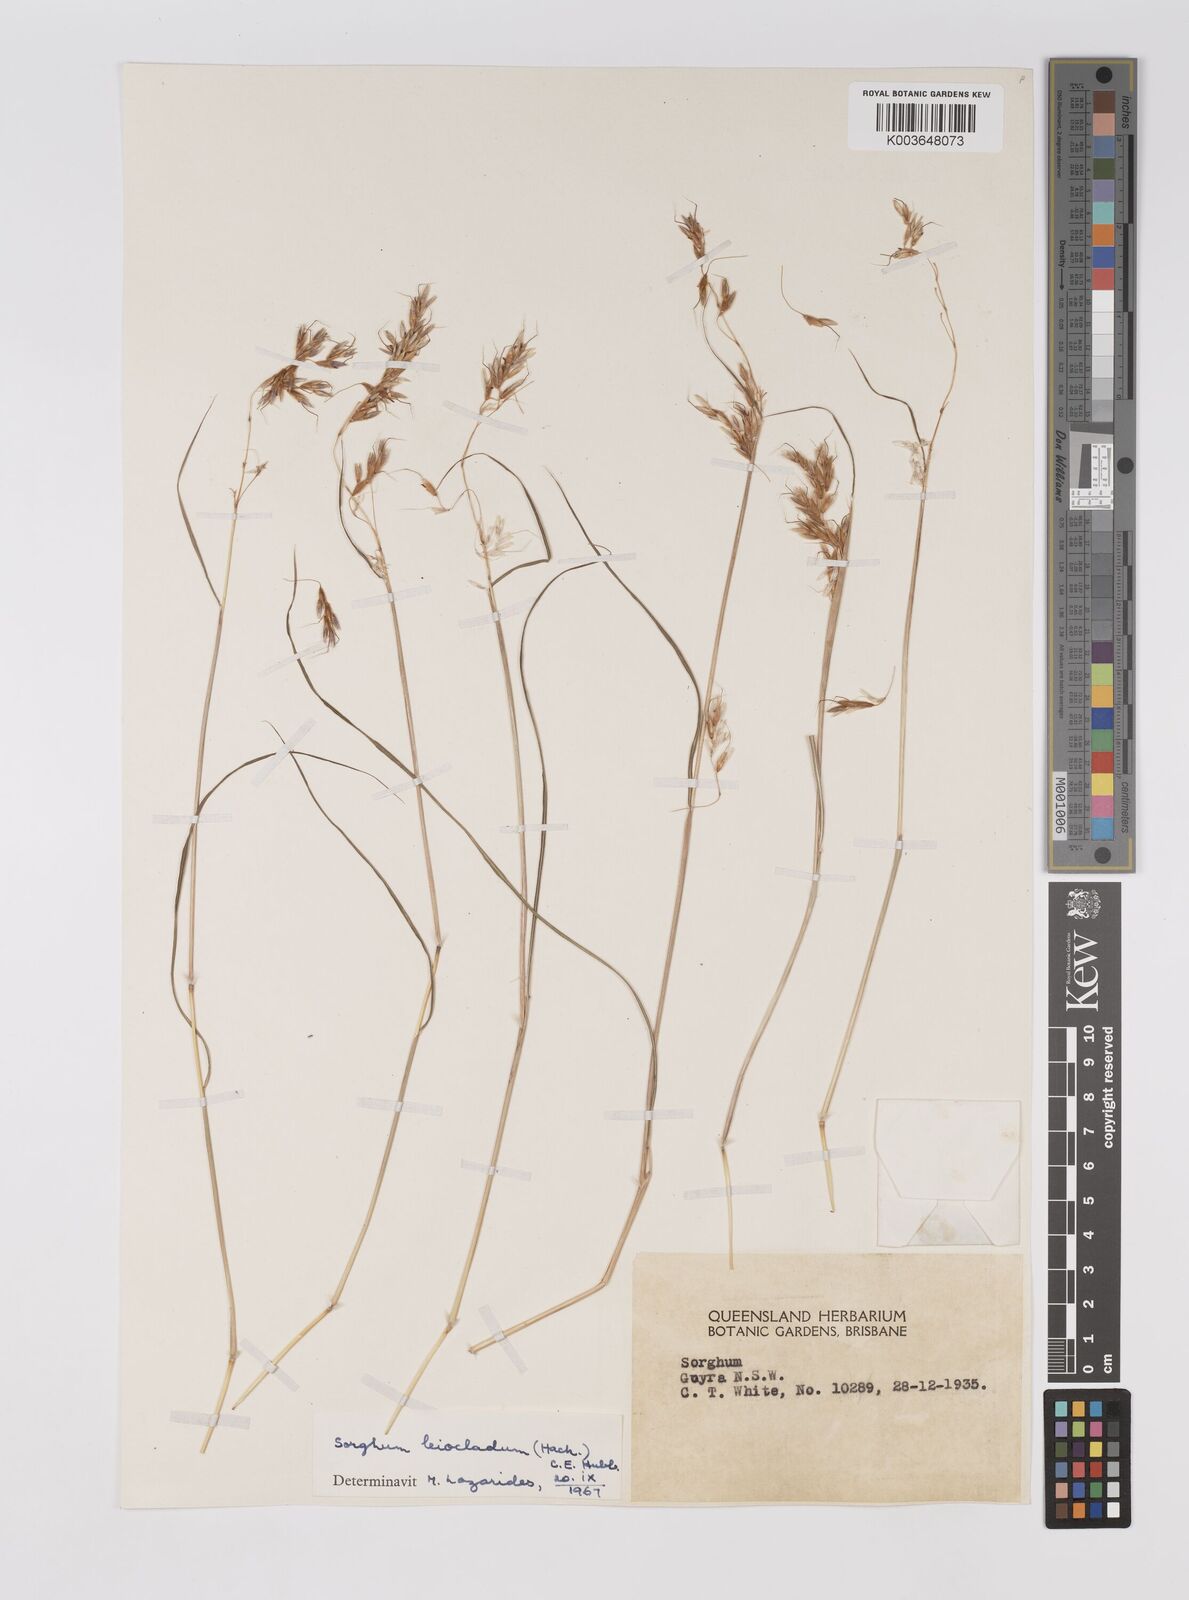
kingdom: Plantae
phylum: Tracheophyta
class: Liliopsida
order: Poales
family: Poaceae
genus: Sarga
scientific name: Sarga leioclada
